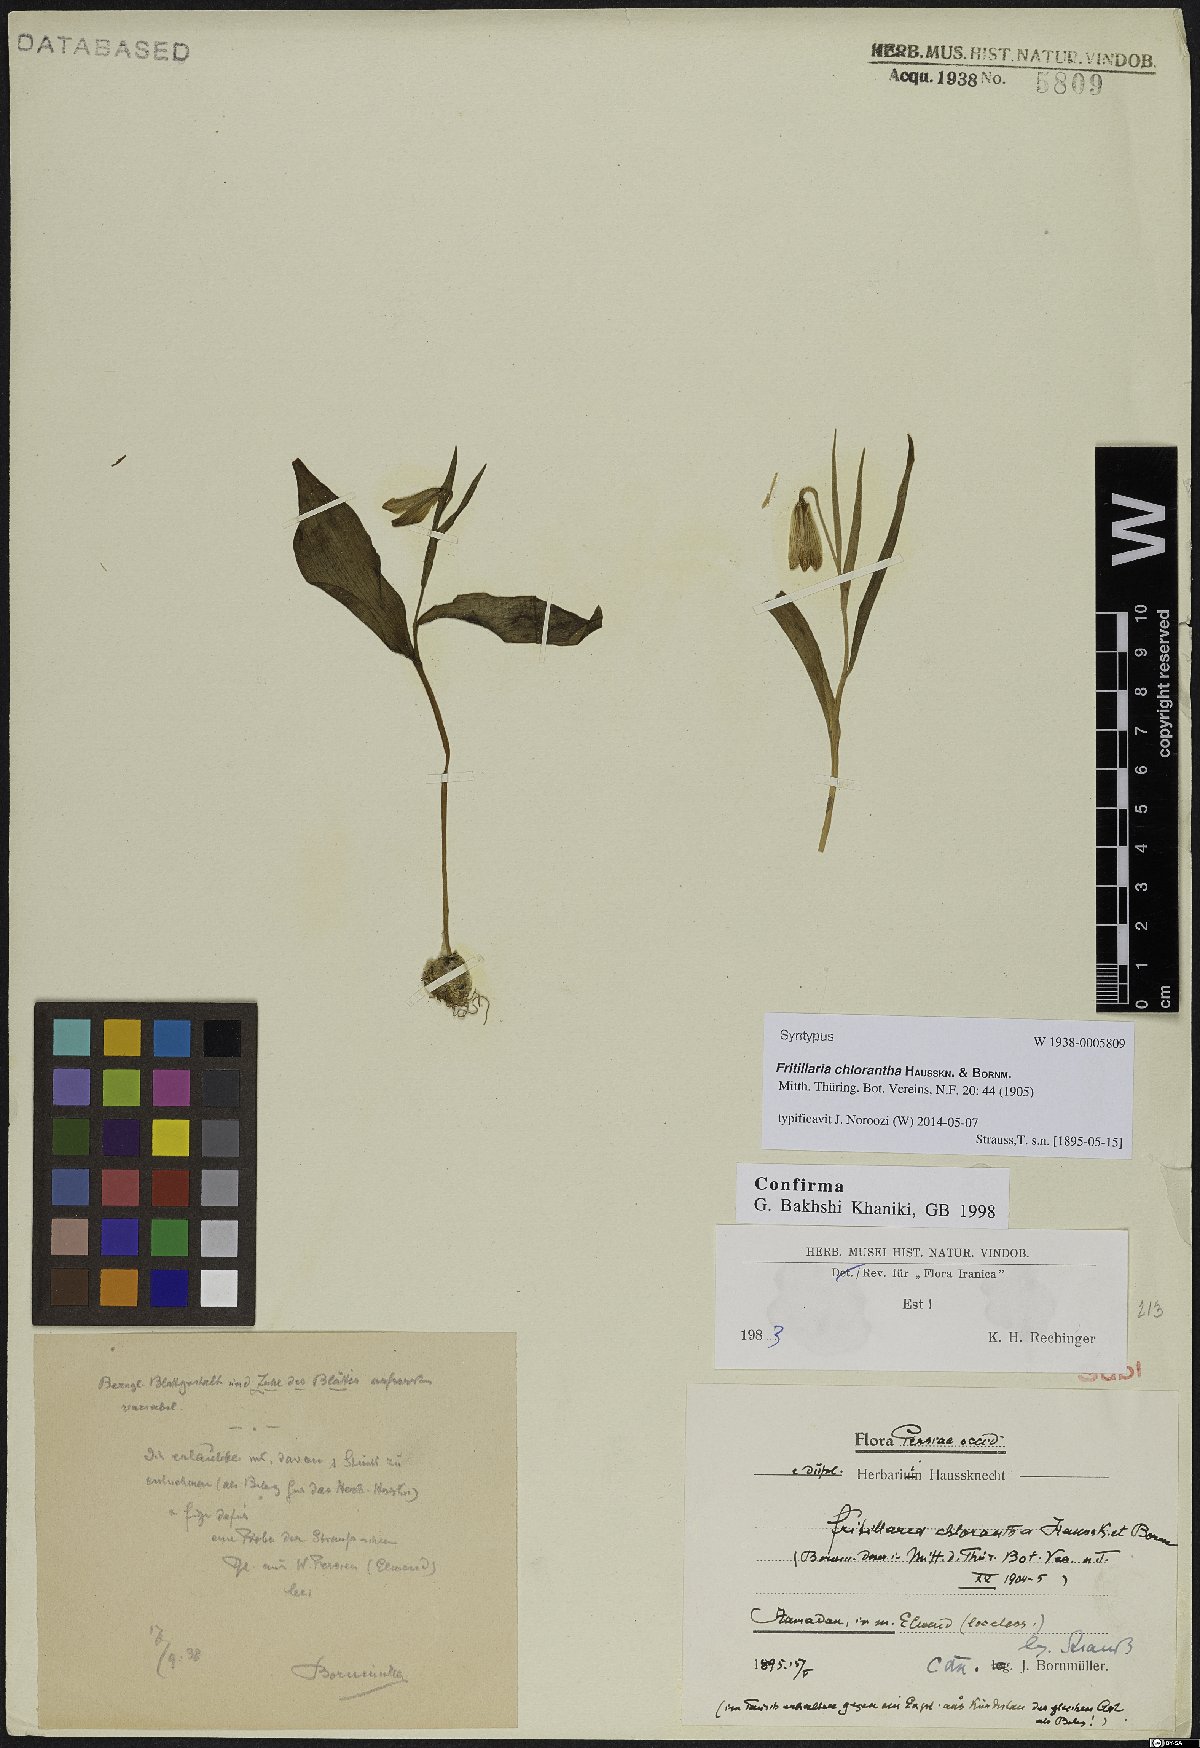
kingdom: Plantae
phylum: Tracheophyta
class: Liliopsida
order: Liliales
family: Liliaceae
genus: Fritillaria
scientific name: Fritillaria chlorantha
